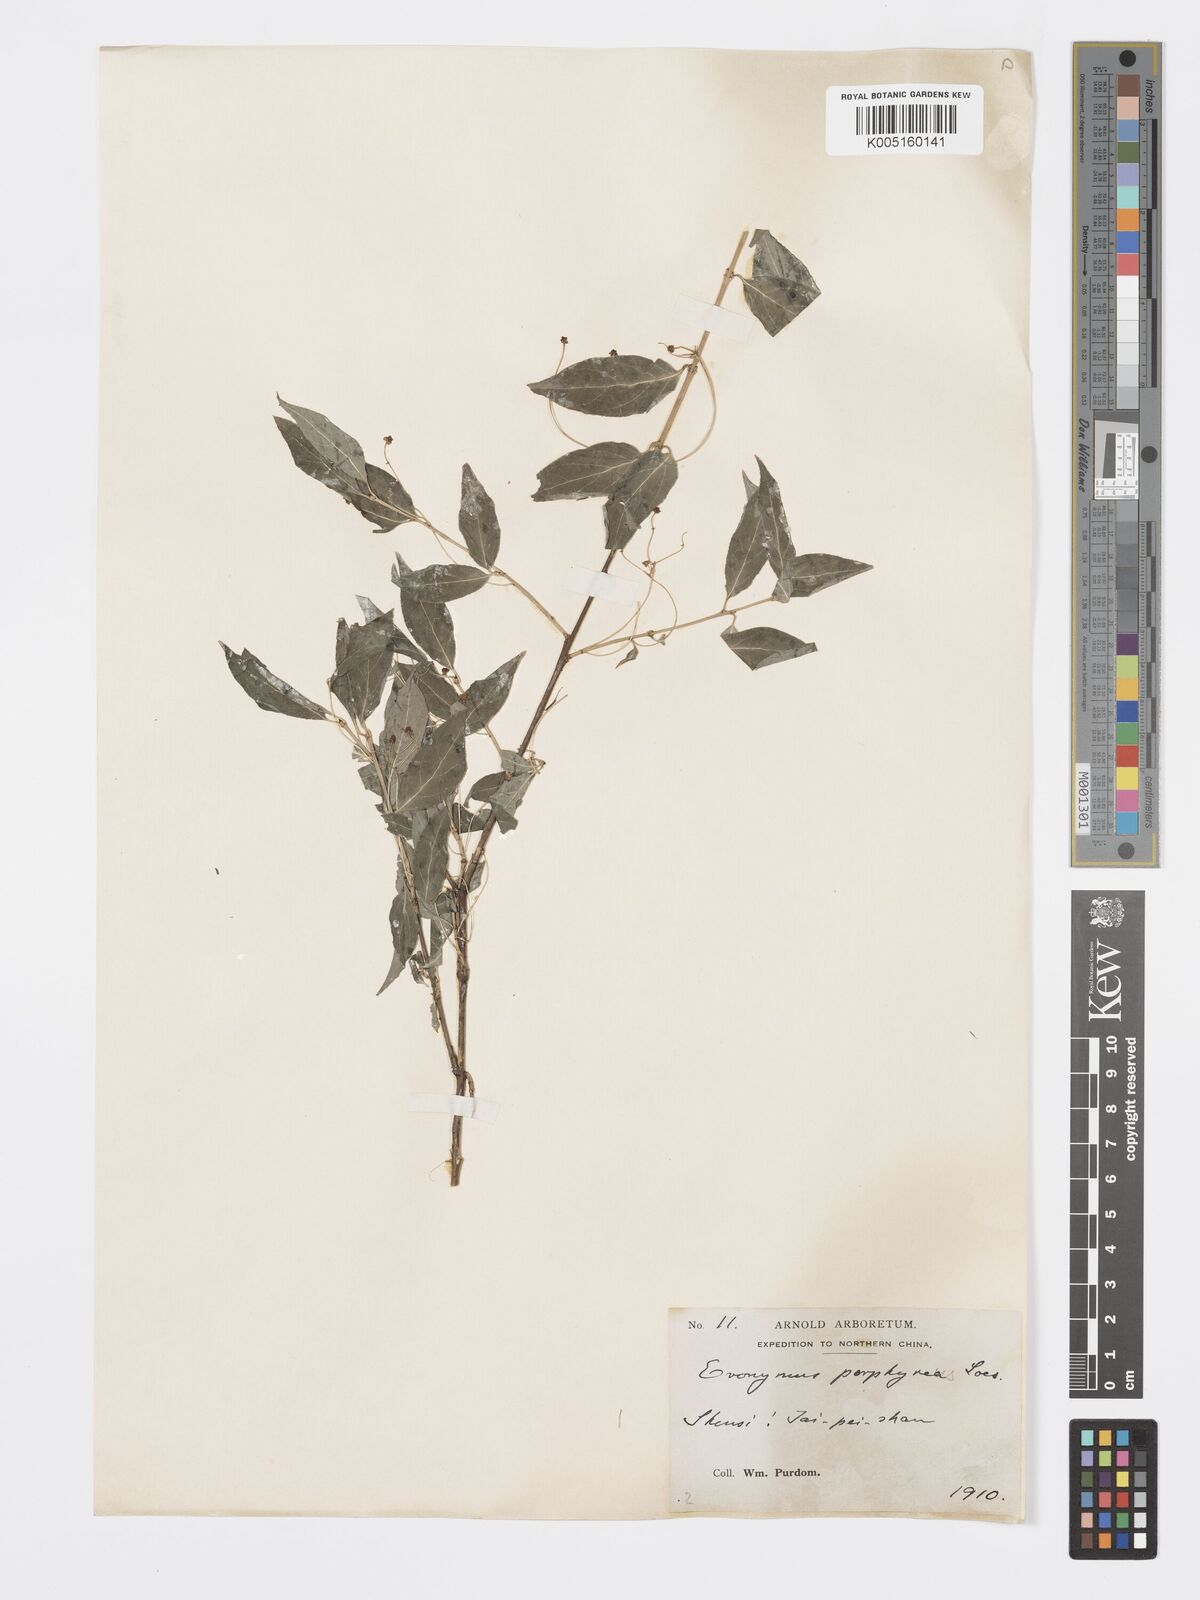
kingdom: Plantae
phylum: Tracheophyta
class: Magnoliopsida
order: Celastrales
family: Celastraceae
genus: Euonymus
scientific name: Euonymus frigidus
